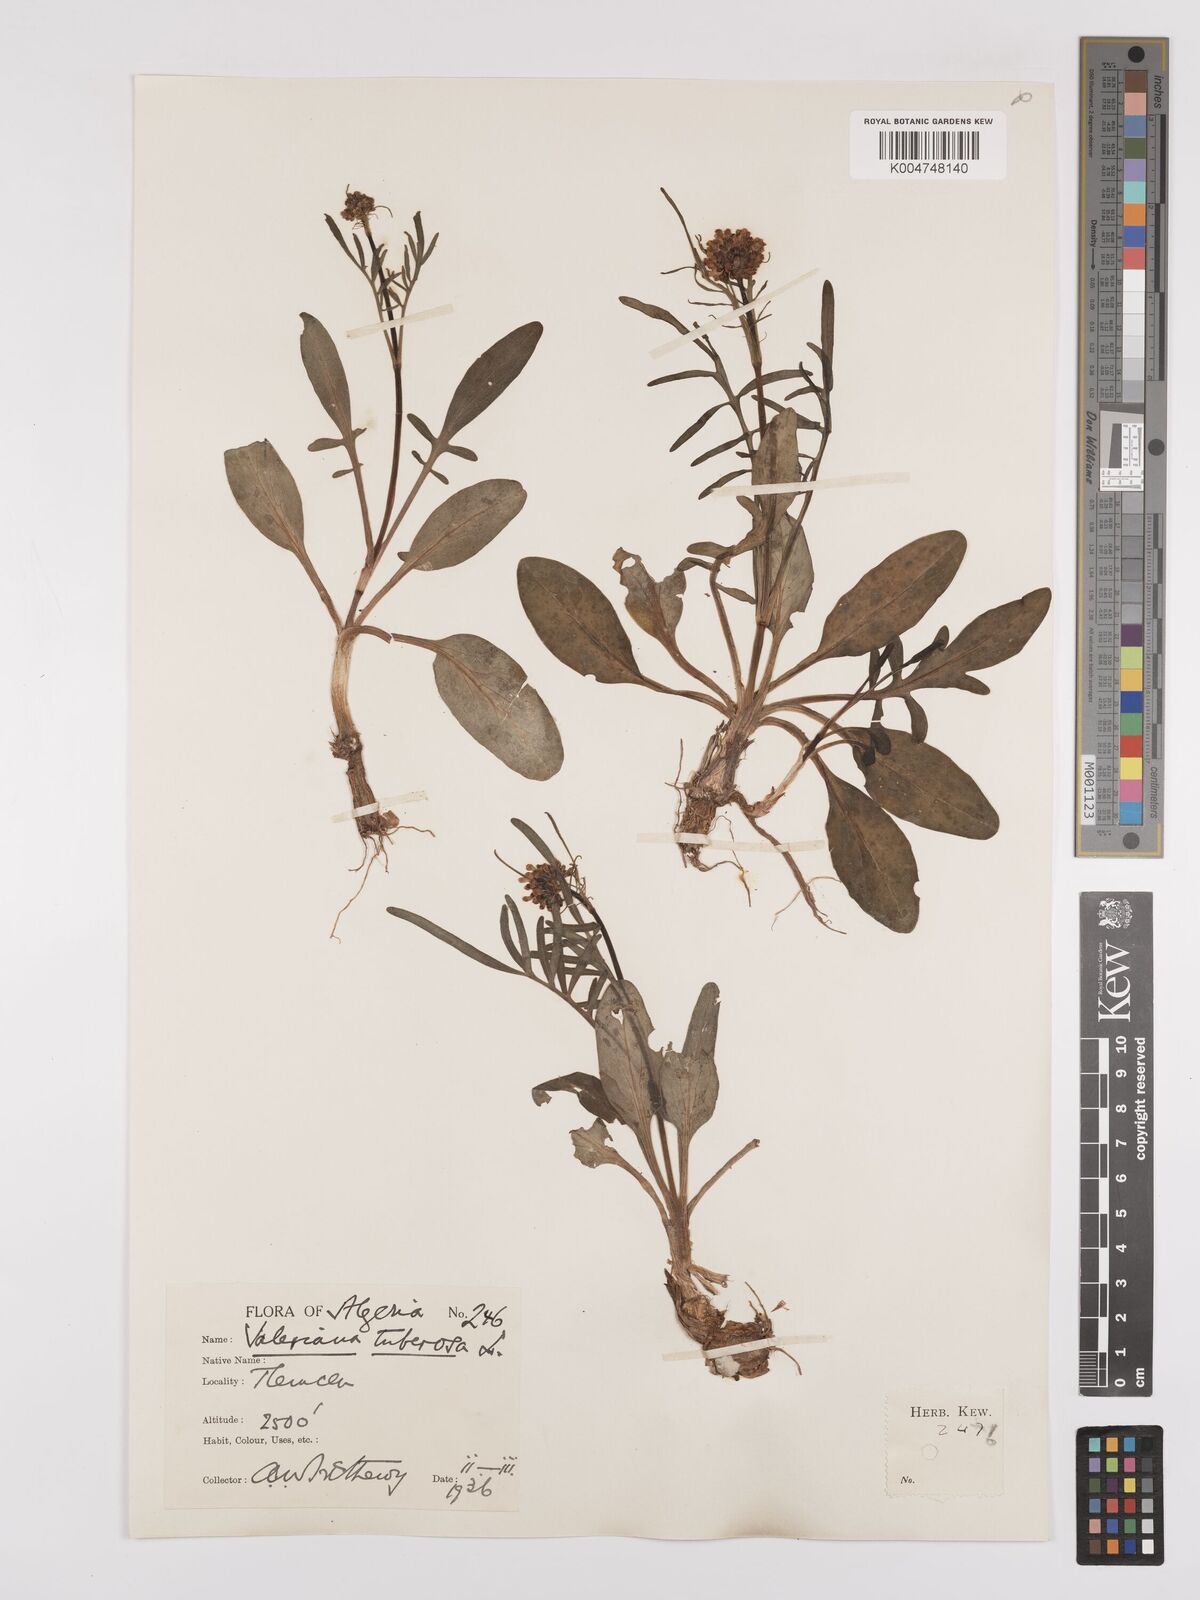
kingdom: Plantae
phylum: Tracheophyta
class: Magnoliopsida
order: Dipsacales
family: Caprifoliaceae
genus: Valeriana
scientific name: Valeriana tuberosa
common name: Tuberous valerian
